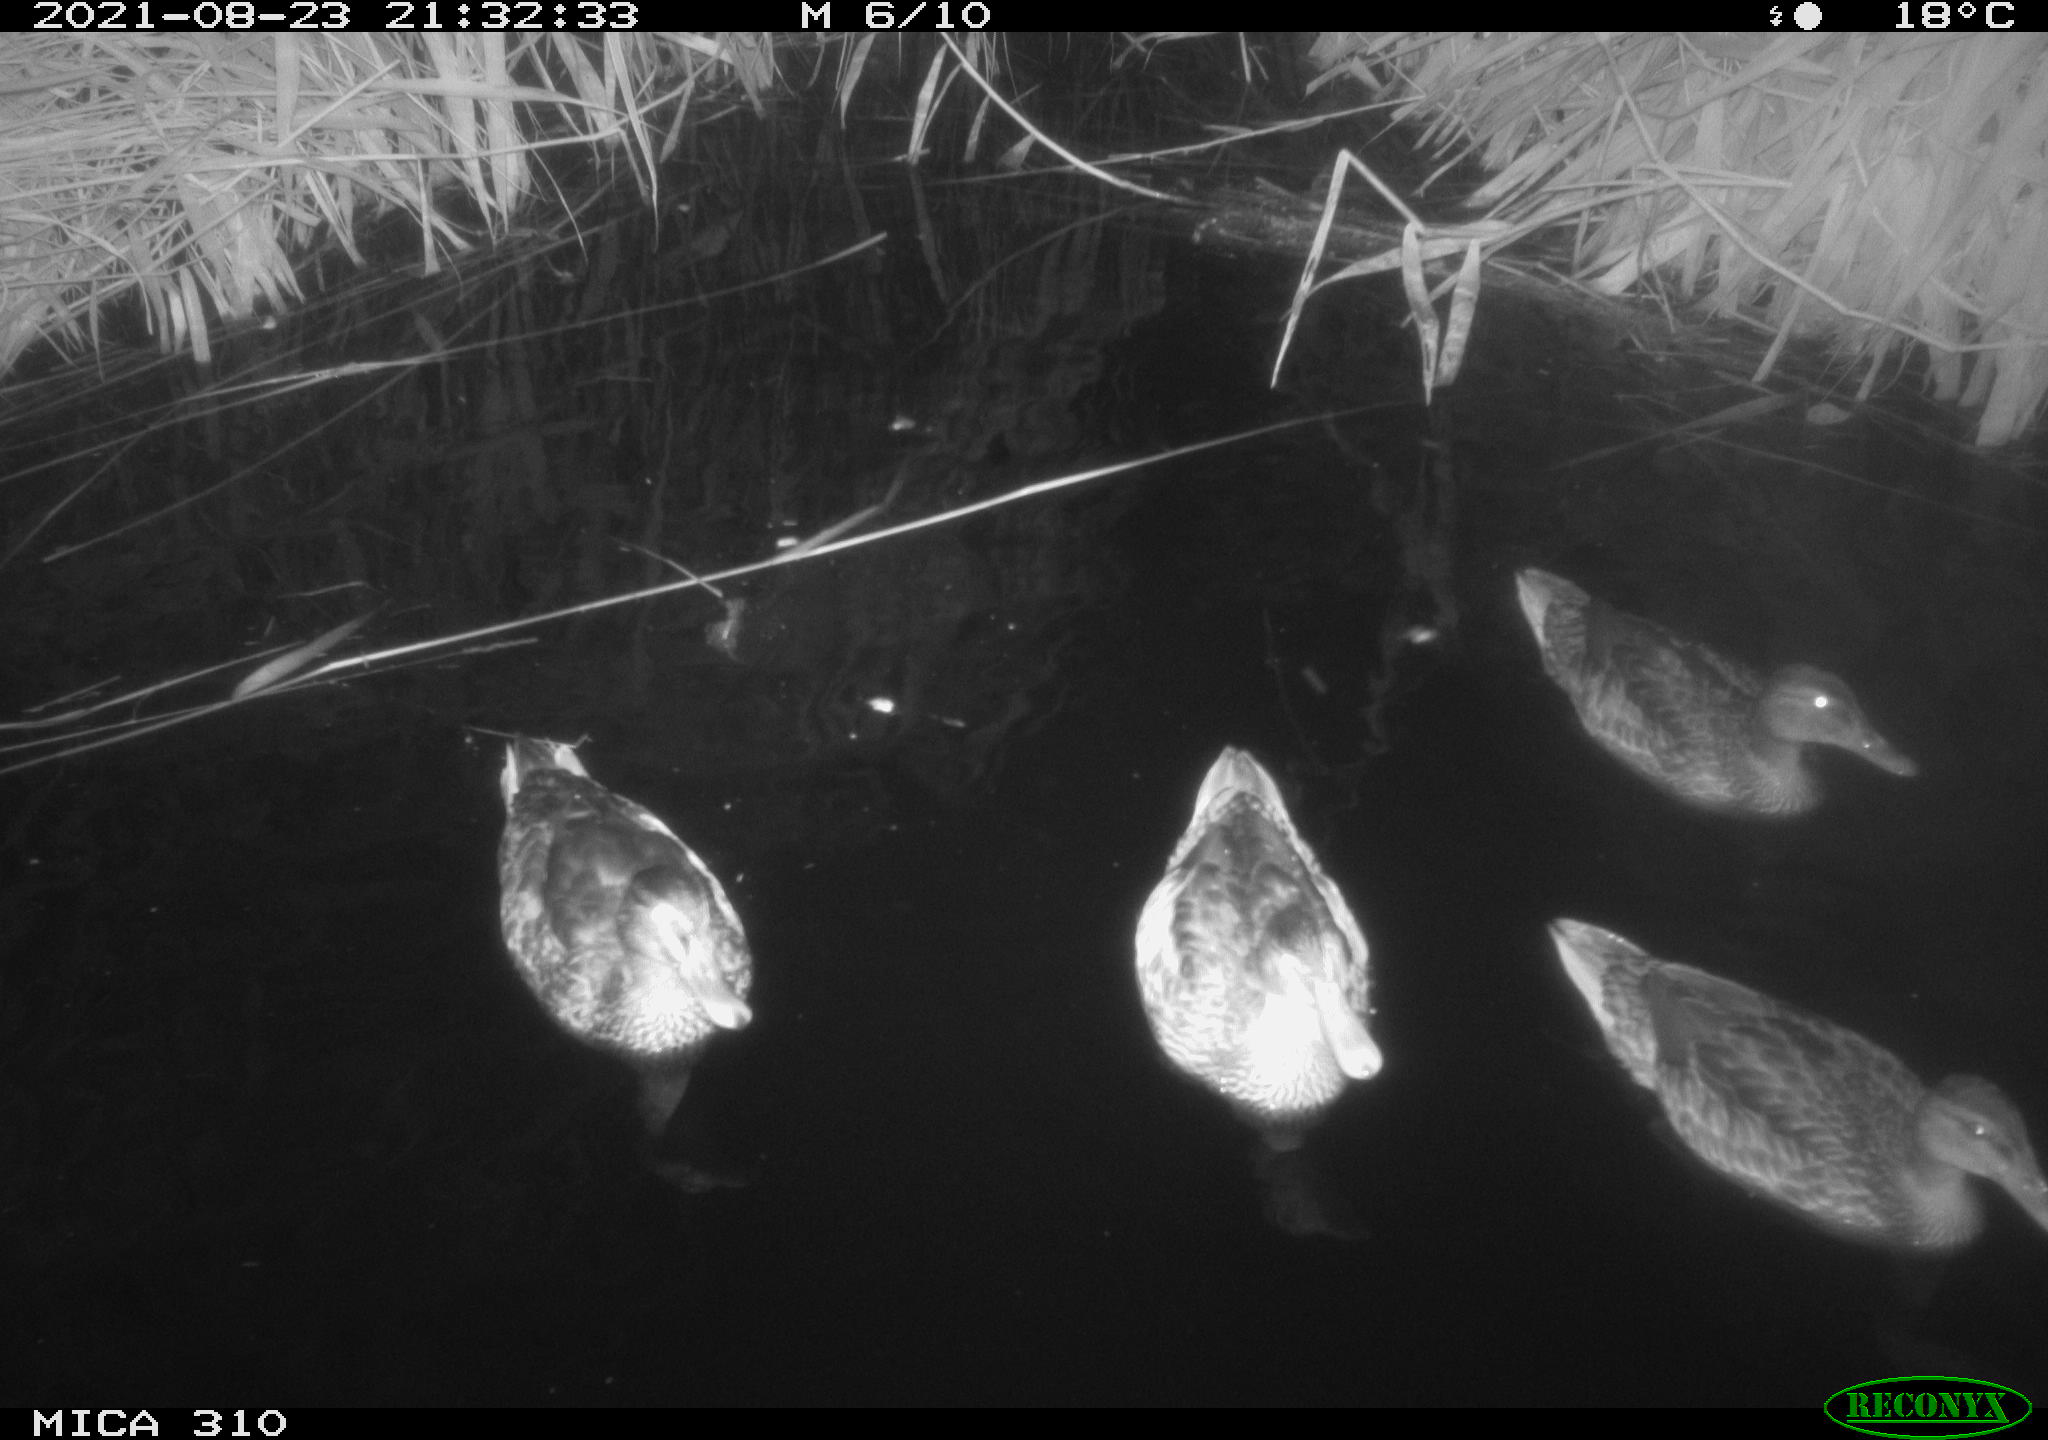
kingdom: Animalia
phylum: Chordata
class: Aves
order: Anseriformes
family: Anatidae
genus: Anas
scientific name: Anas platyrhynchos
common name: Mallard
